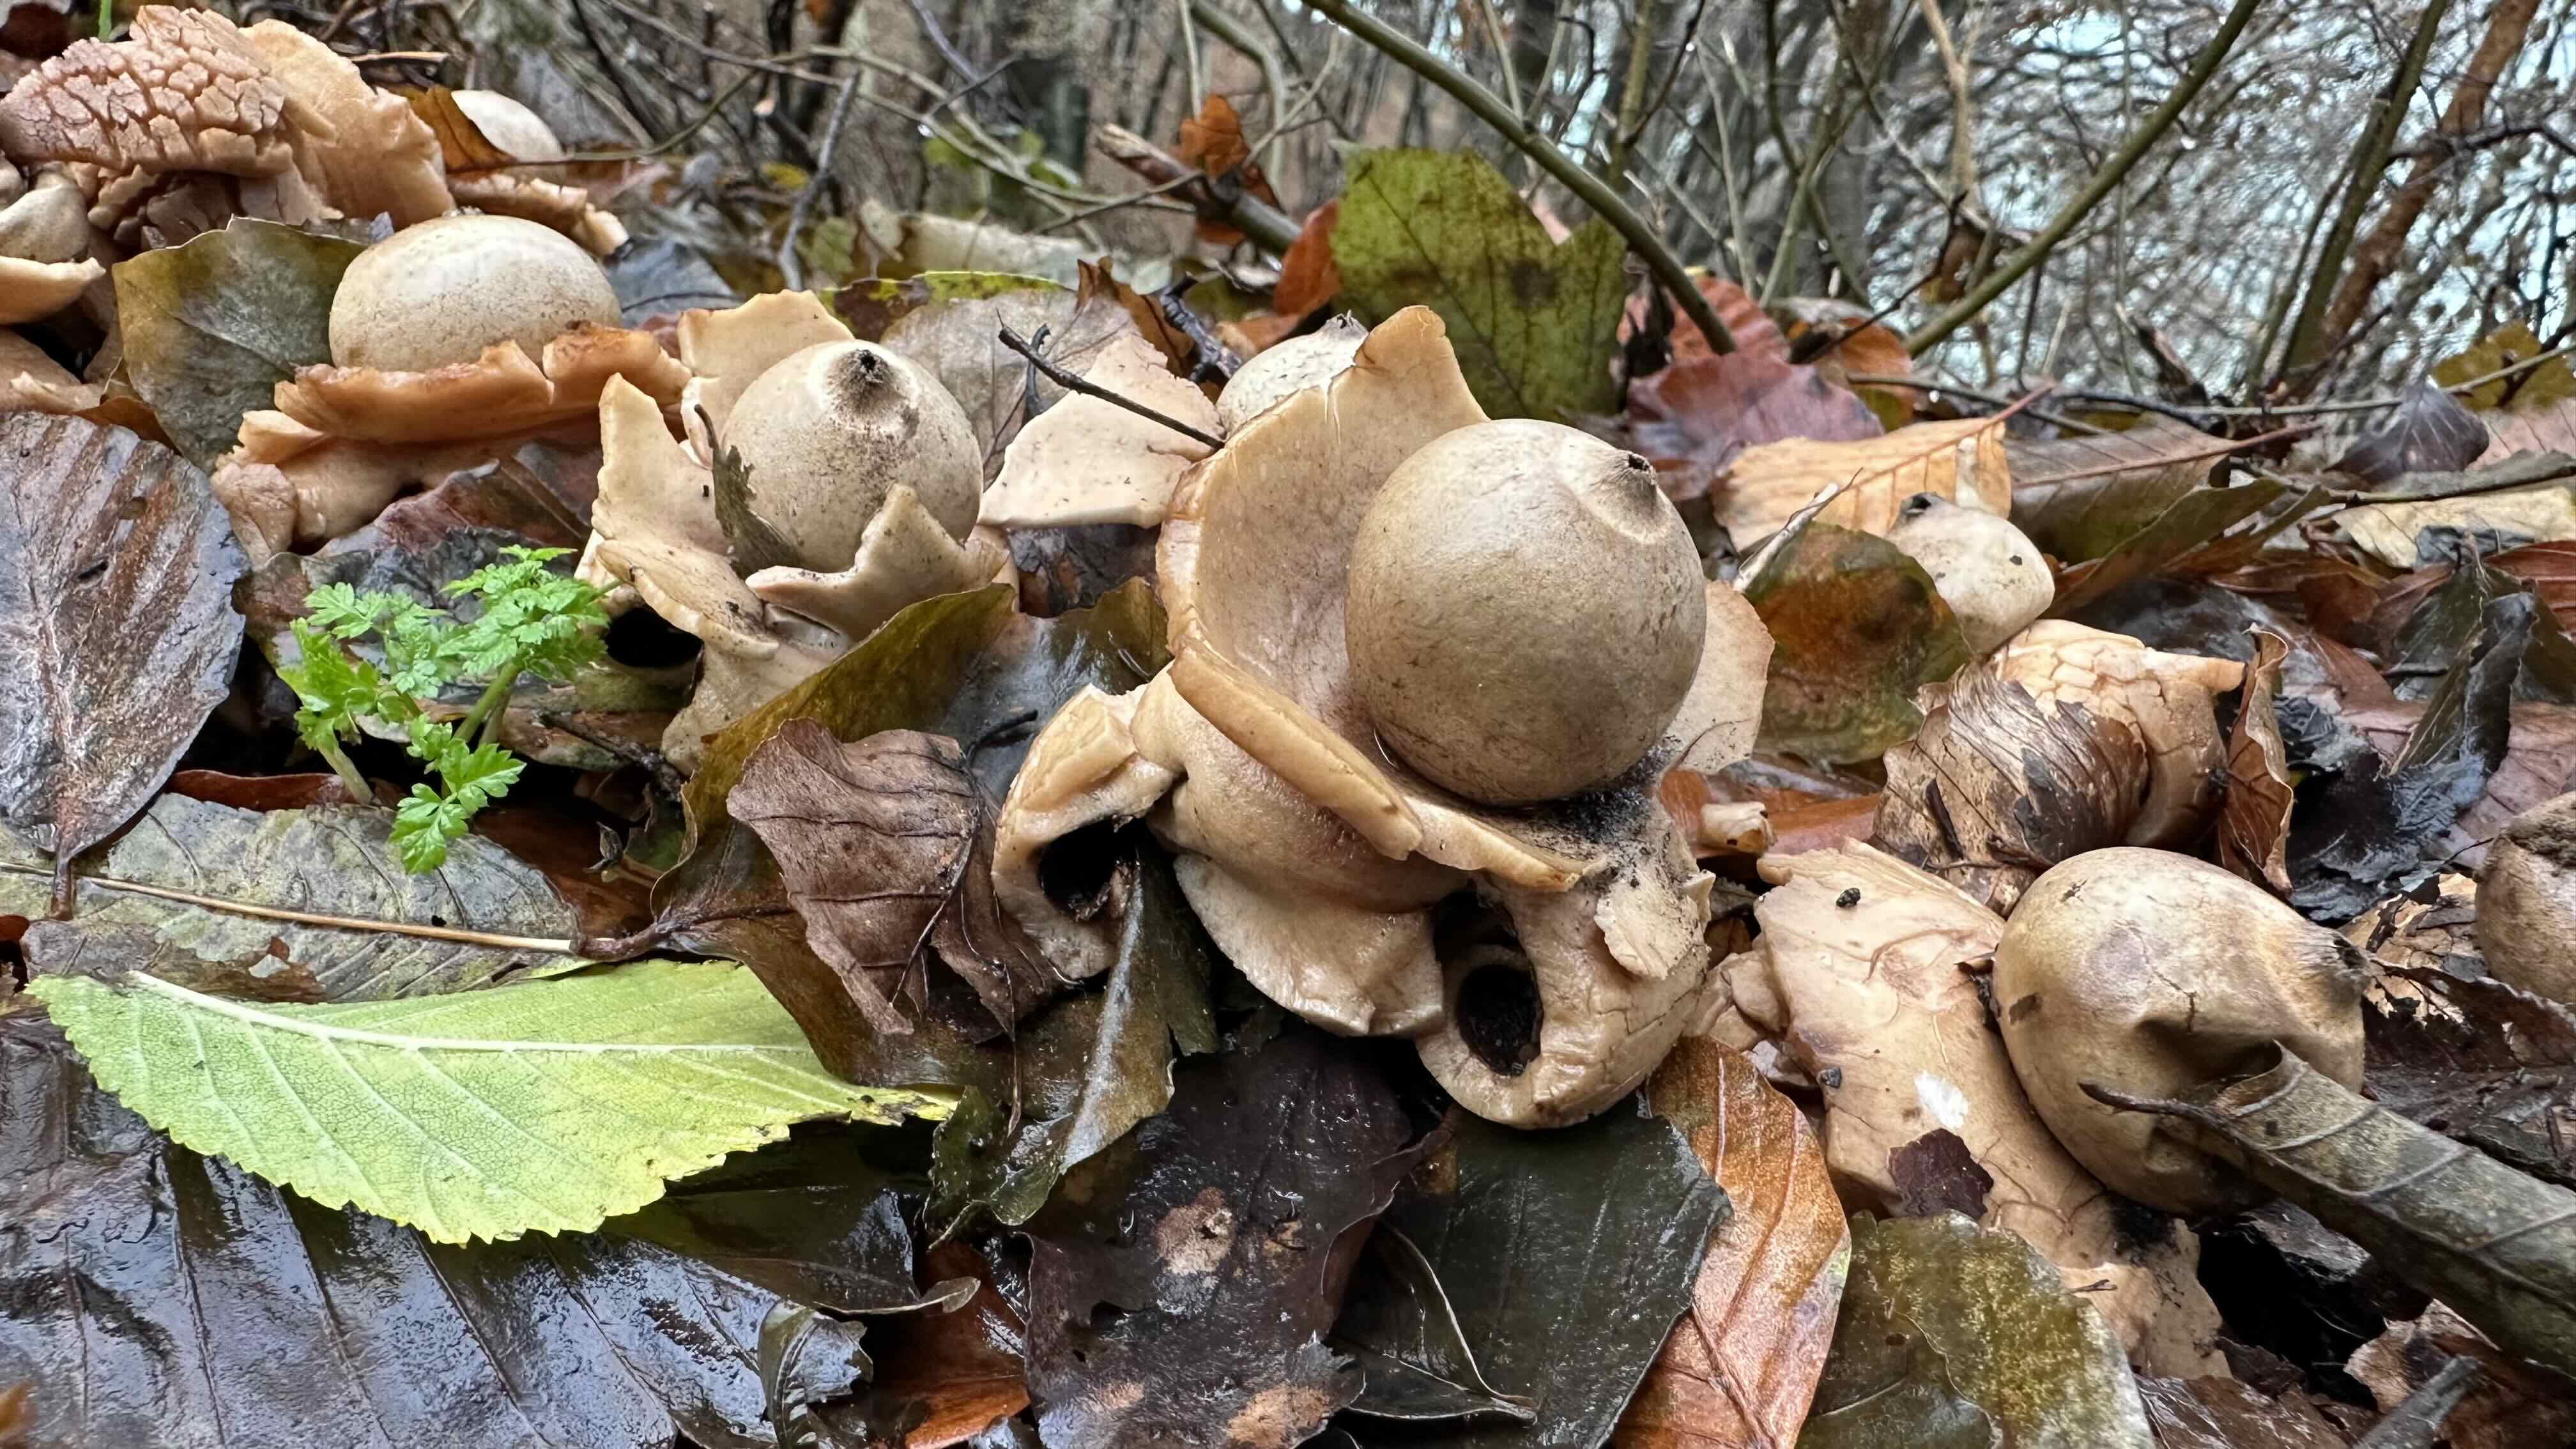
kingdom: Fungi
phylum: Basidiomycota
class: Agaricomycetes
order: Geastrales
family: Geastraceae
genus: Geastrum
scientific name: Geastrum michelianum
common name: kødet stjernebold
